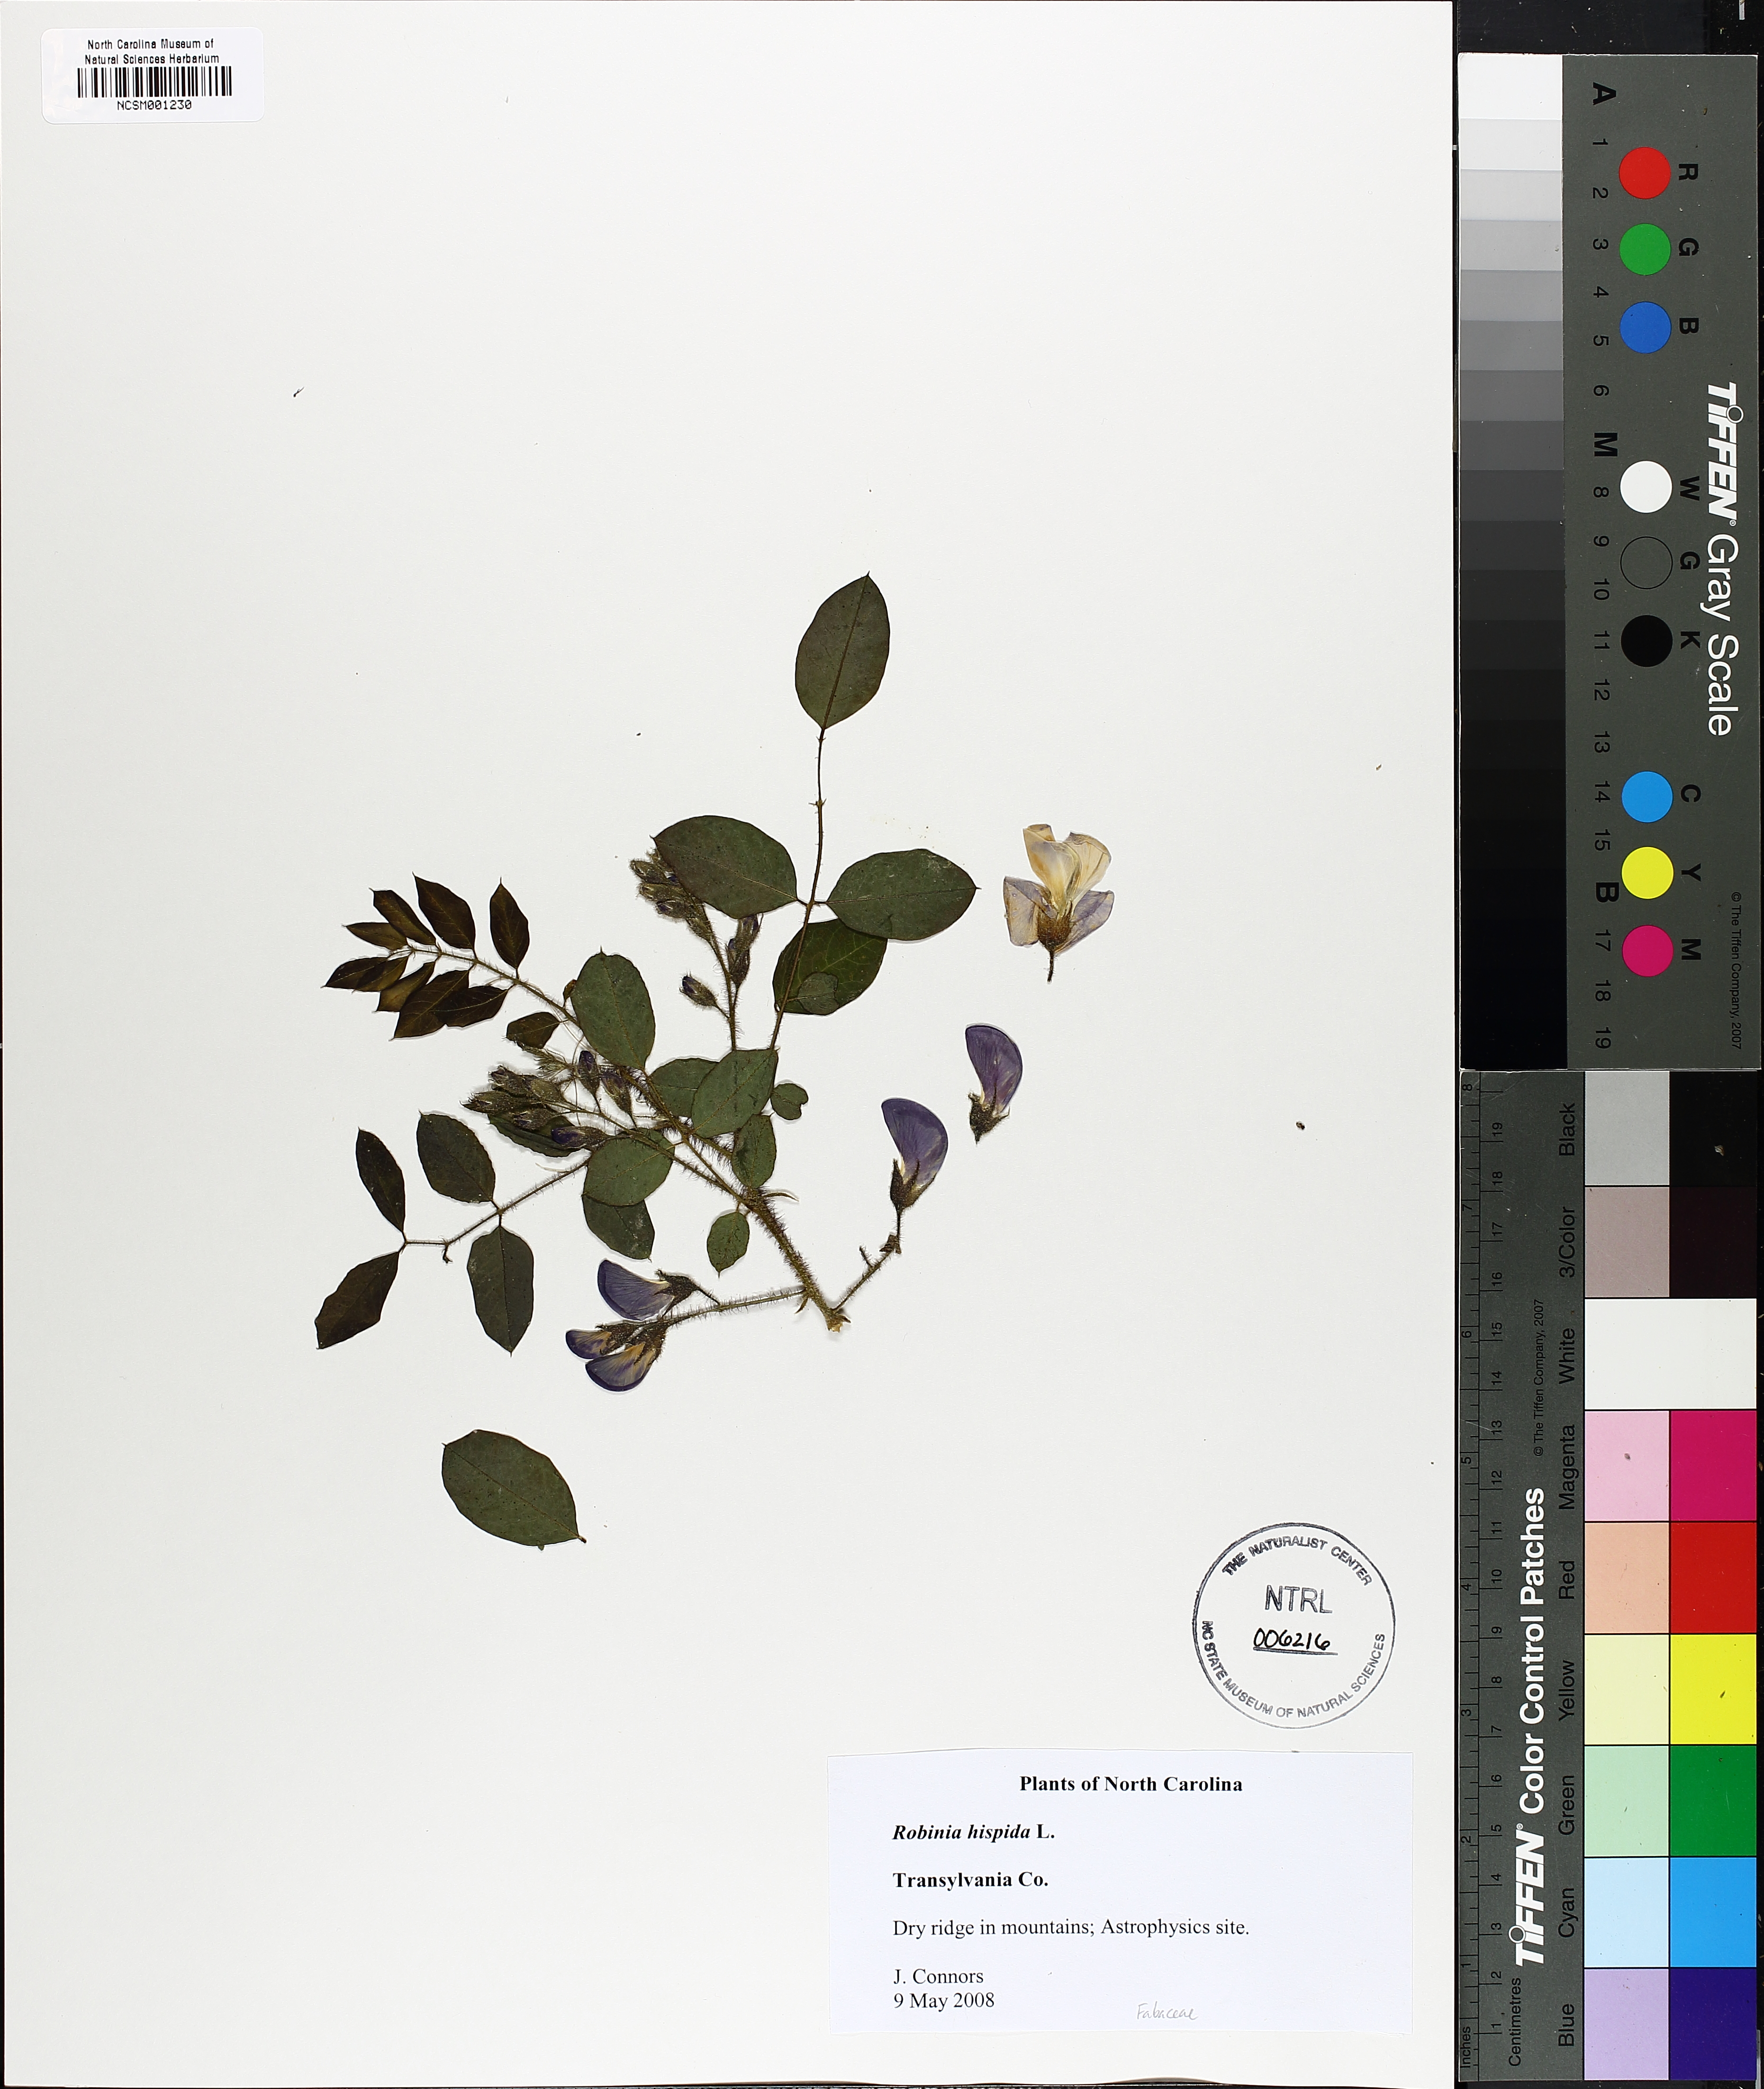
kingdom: Plantae
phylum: Tracheophyta
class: Magnoliopsida
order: Fabales
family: Fabaceae
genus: Robinia
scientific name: Robinia hispida
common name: Bristly locust
